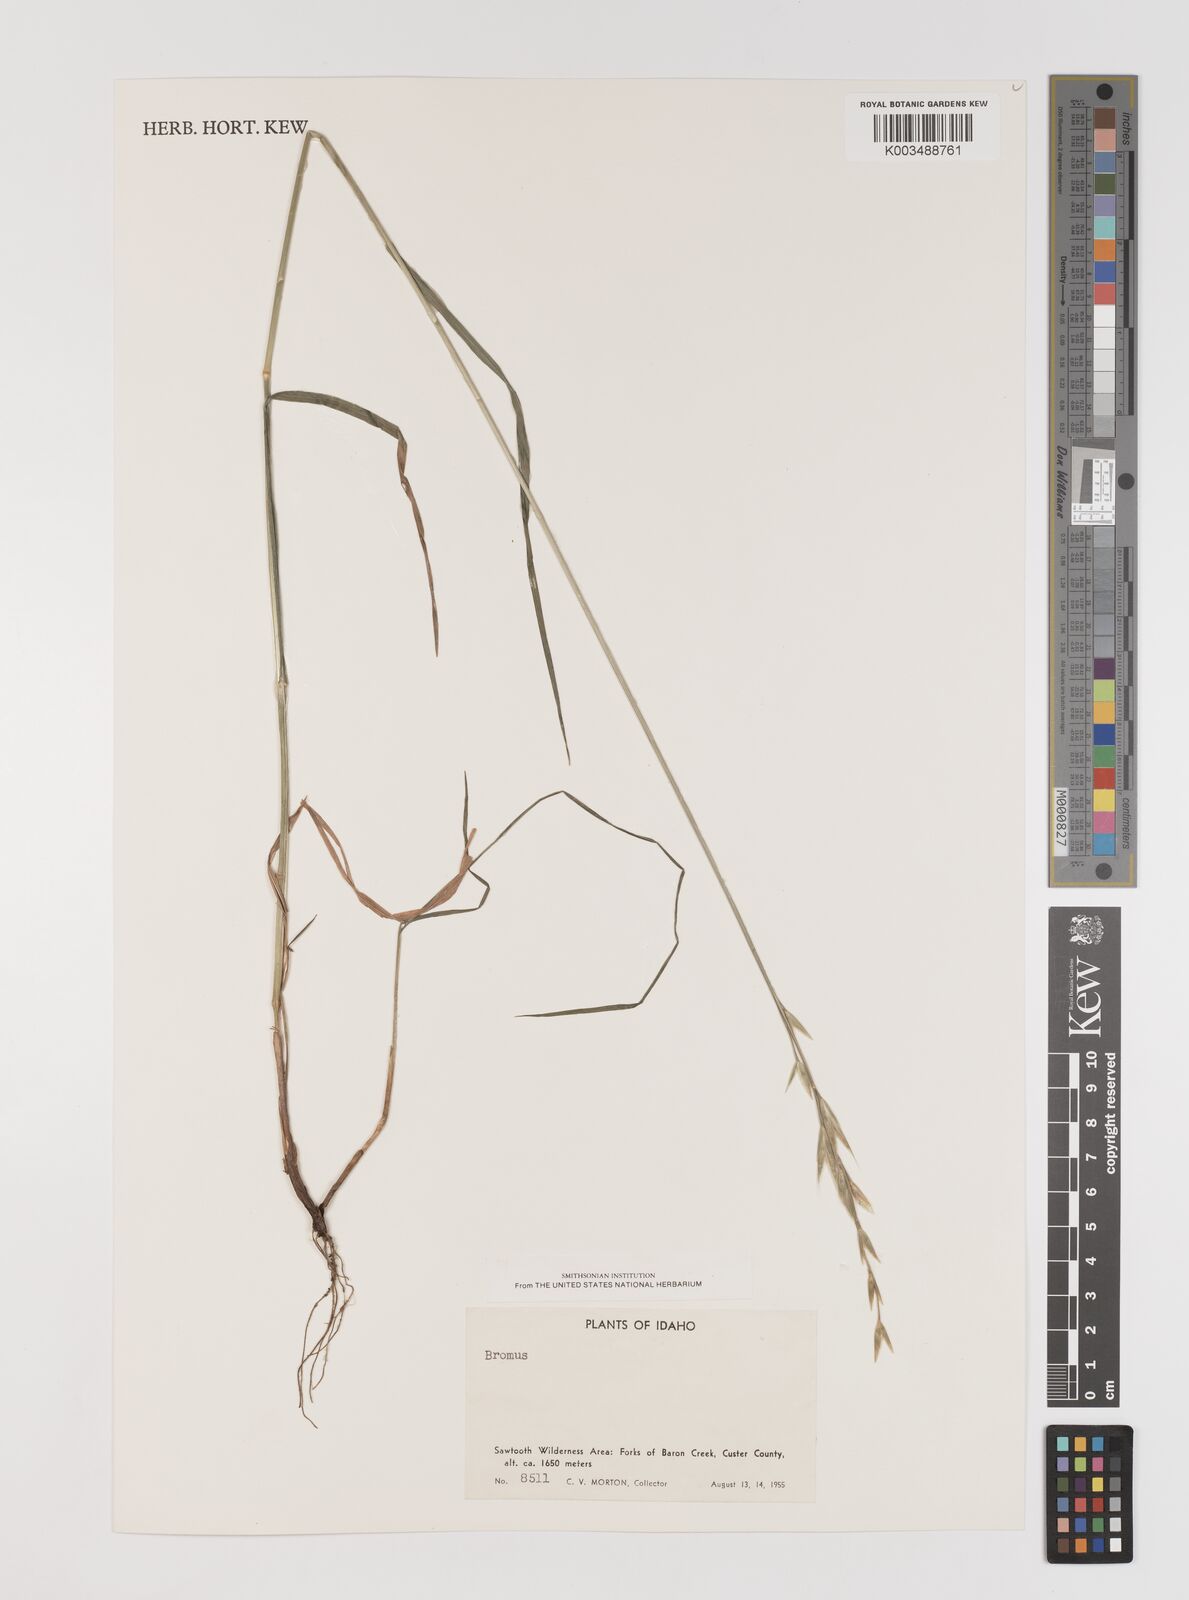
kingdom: Plantae
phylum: Tracheophyta
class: Liliopsida
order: Poales
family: Poaceae
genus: Bromus
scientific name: Bromus
